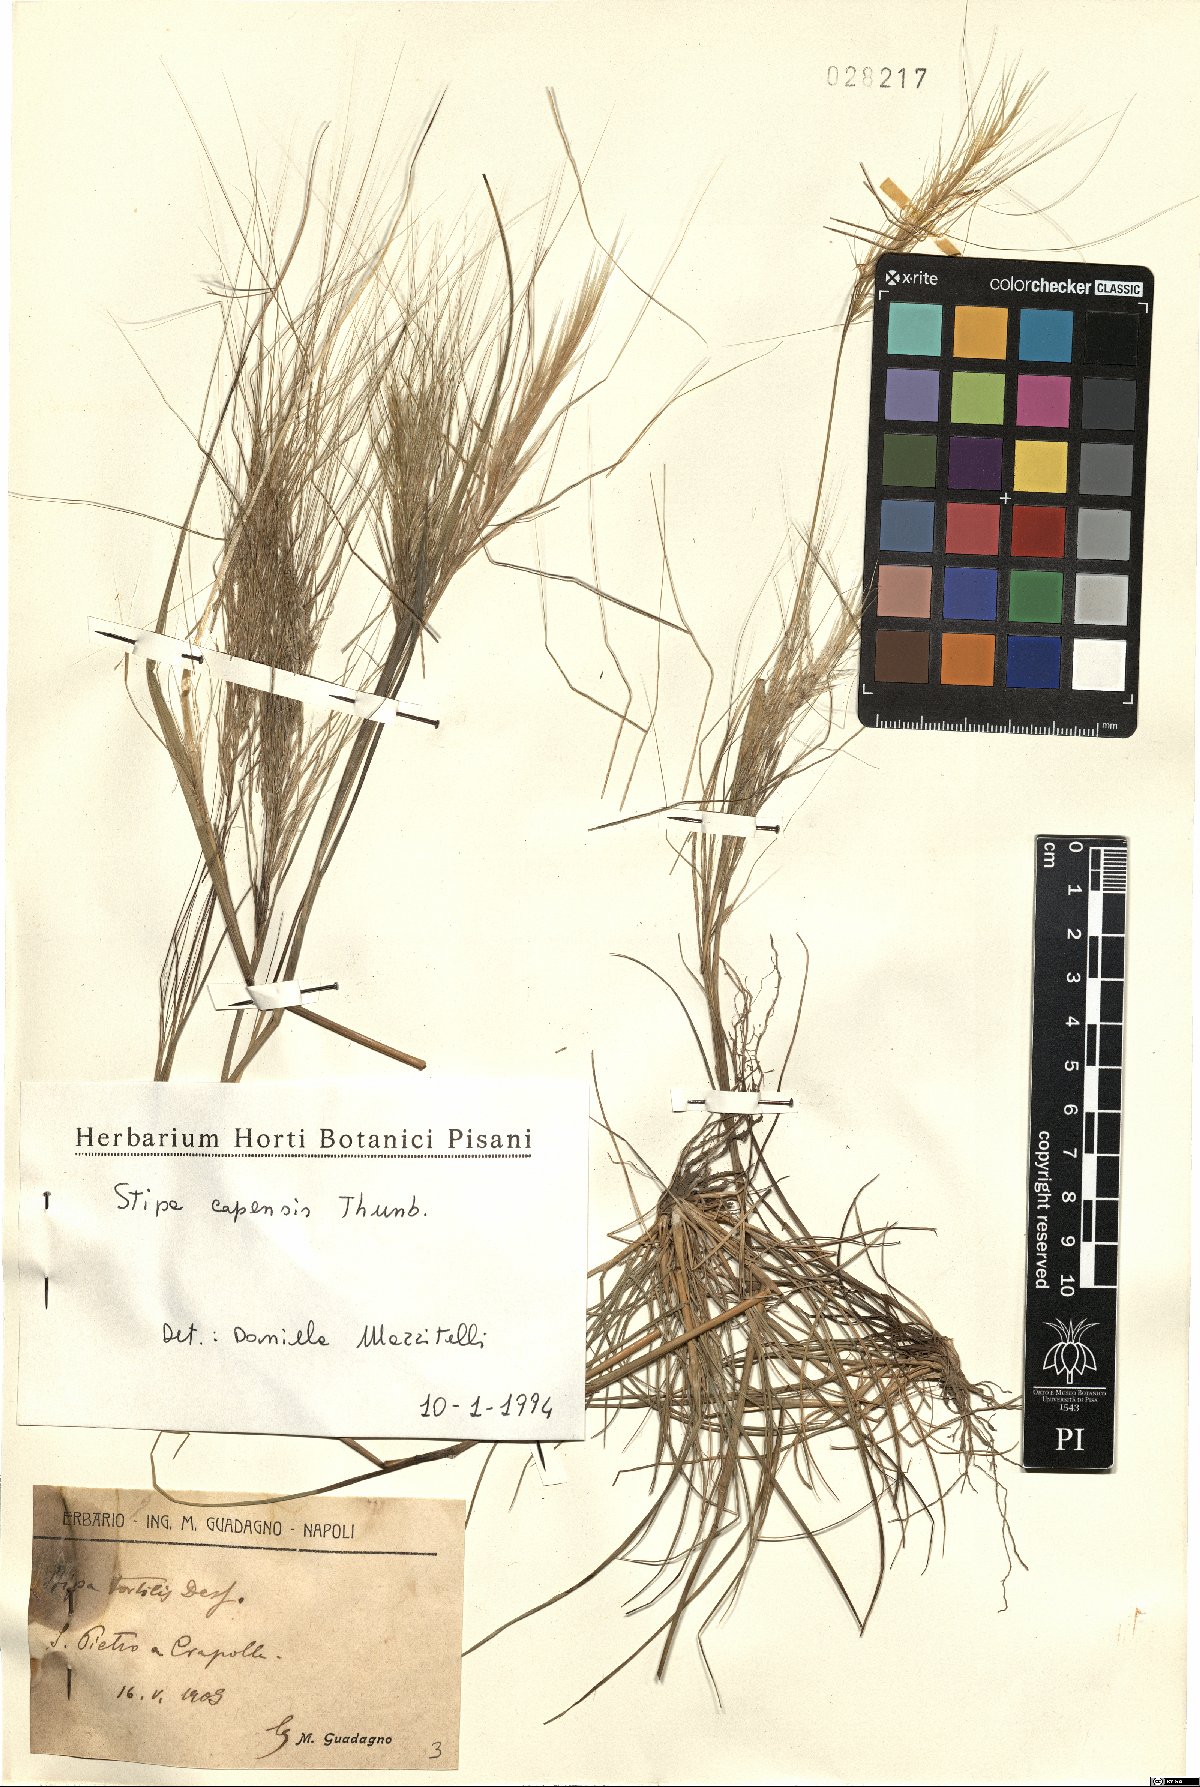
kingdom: Plantae
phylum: Tracheophyta
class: Liliopsida
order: Poales
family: Poaceae
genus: Stipellula
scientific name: Stipellula capensis
